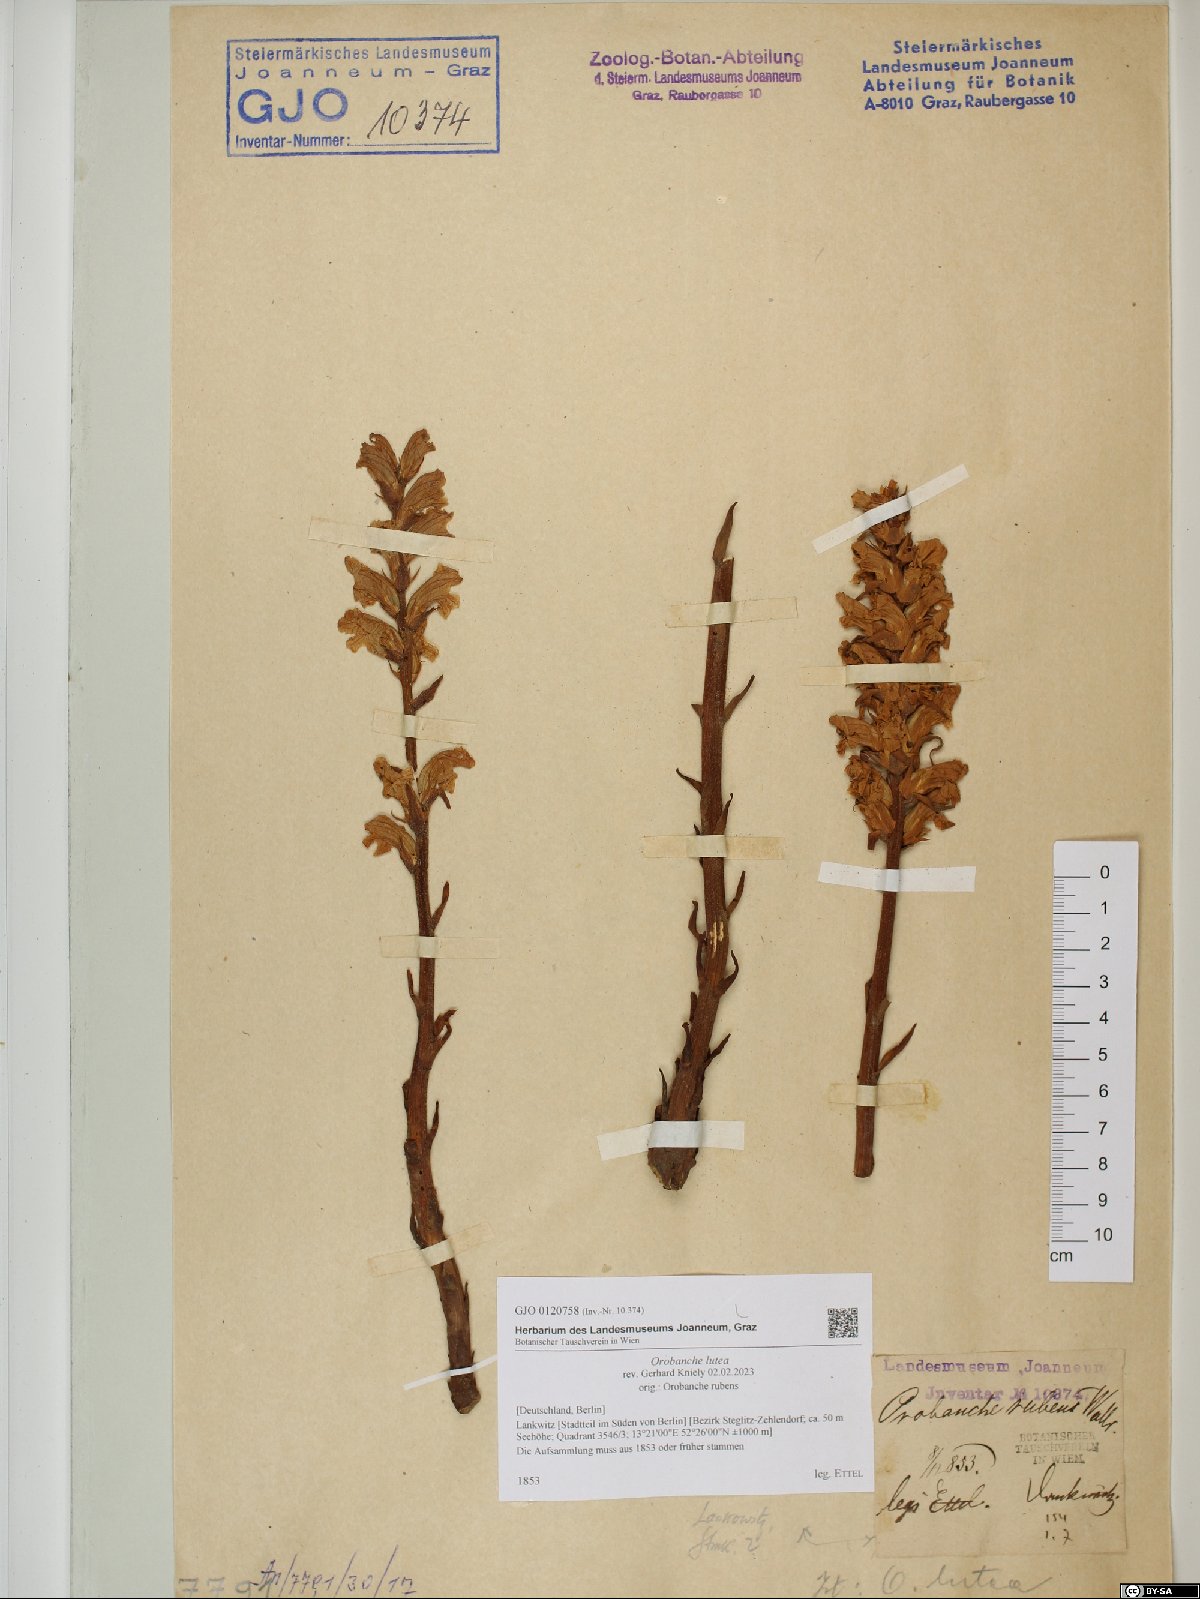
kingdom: Plantae
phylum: Tracheophyta
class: Magnoliopsida
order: Lamiales
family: Orobanchaceae
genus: Orobanche
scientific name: Orobanche lutea
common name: Yellow broomrape
